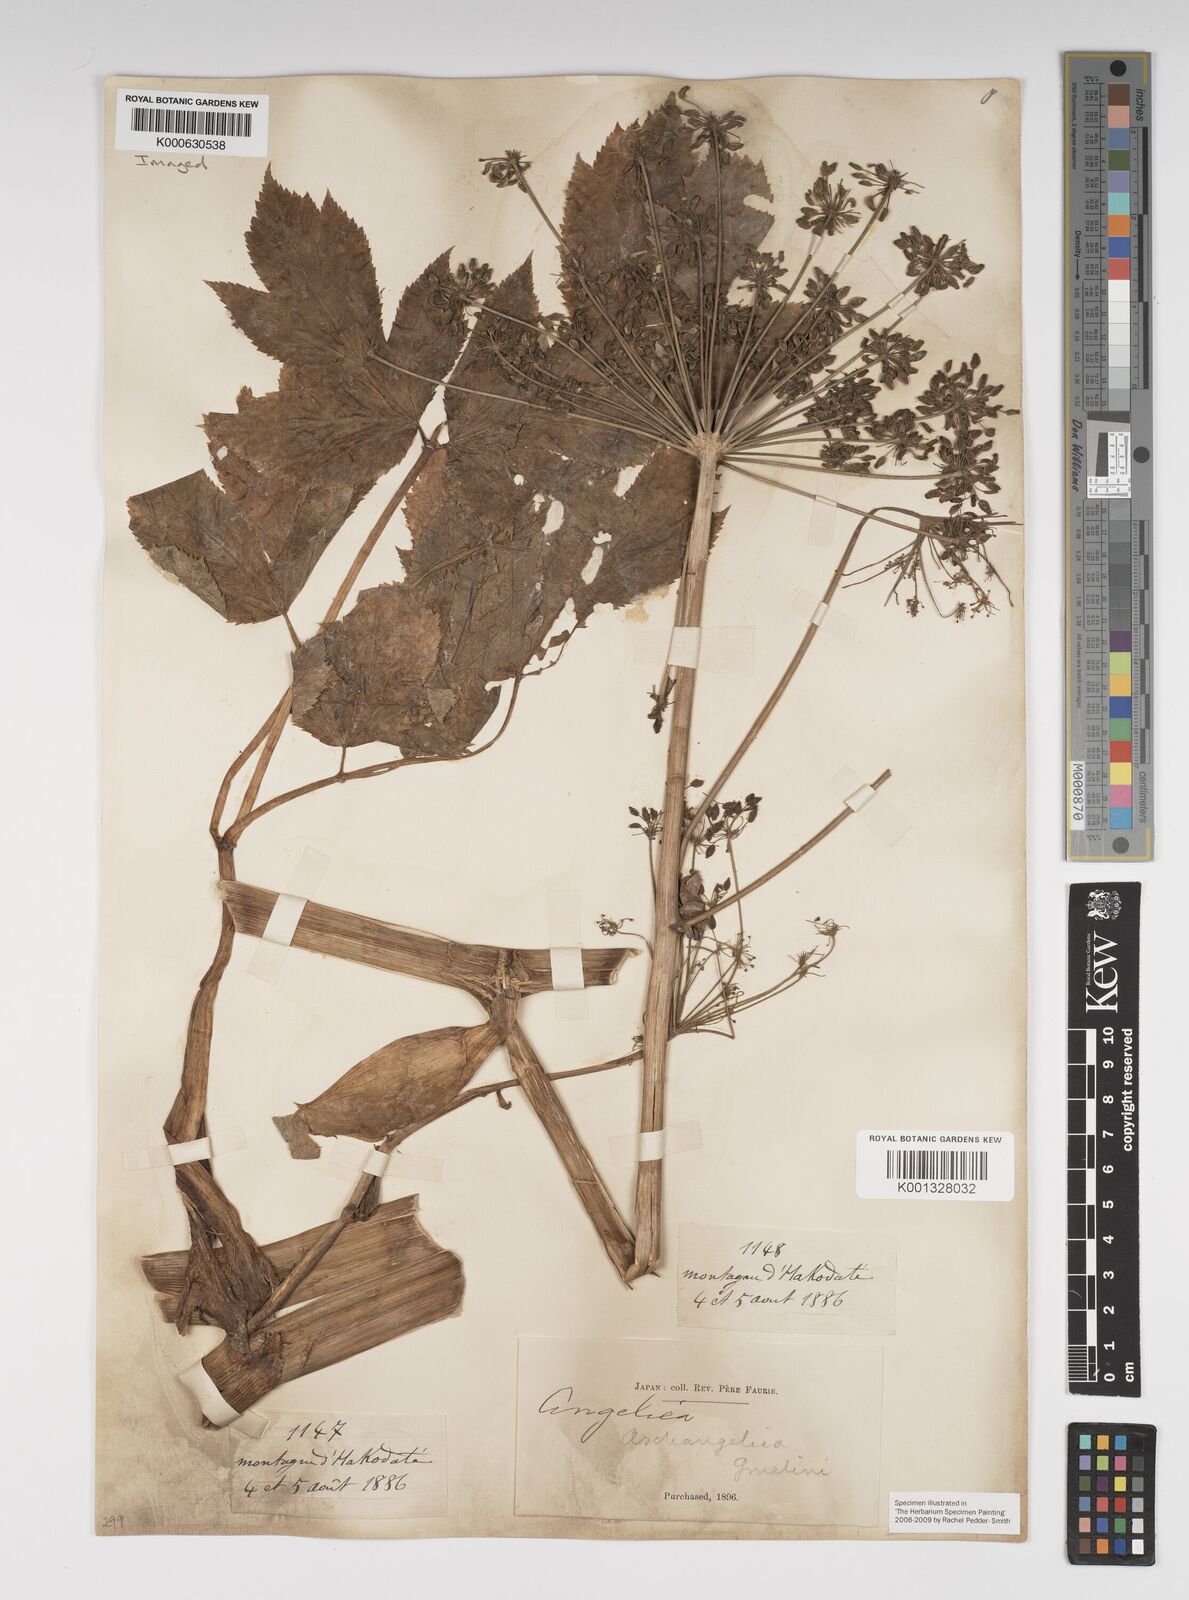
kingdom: Plantae
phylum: Tracheophyta
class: Magnoliopsida
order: Apiales
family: Apiaceae
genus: Angelica
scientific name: Angelica gmelinii
